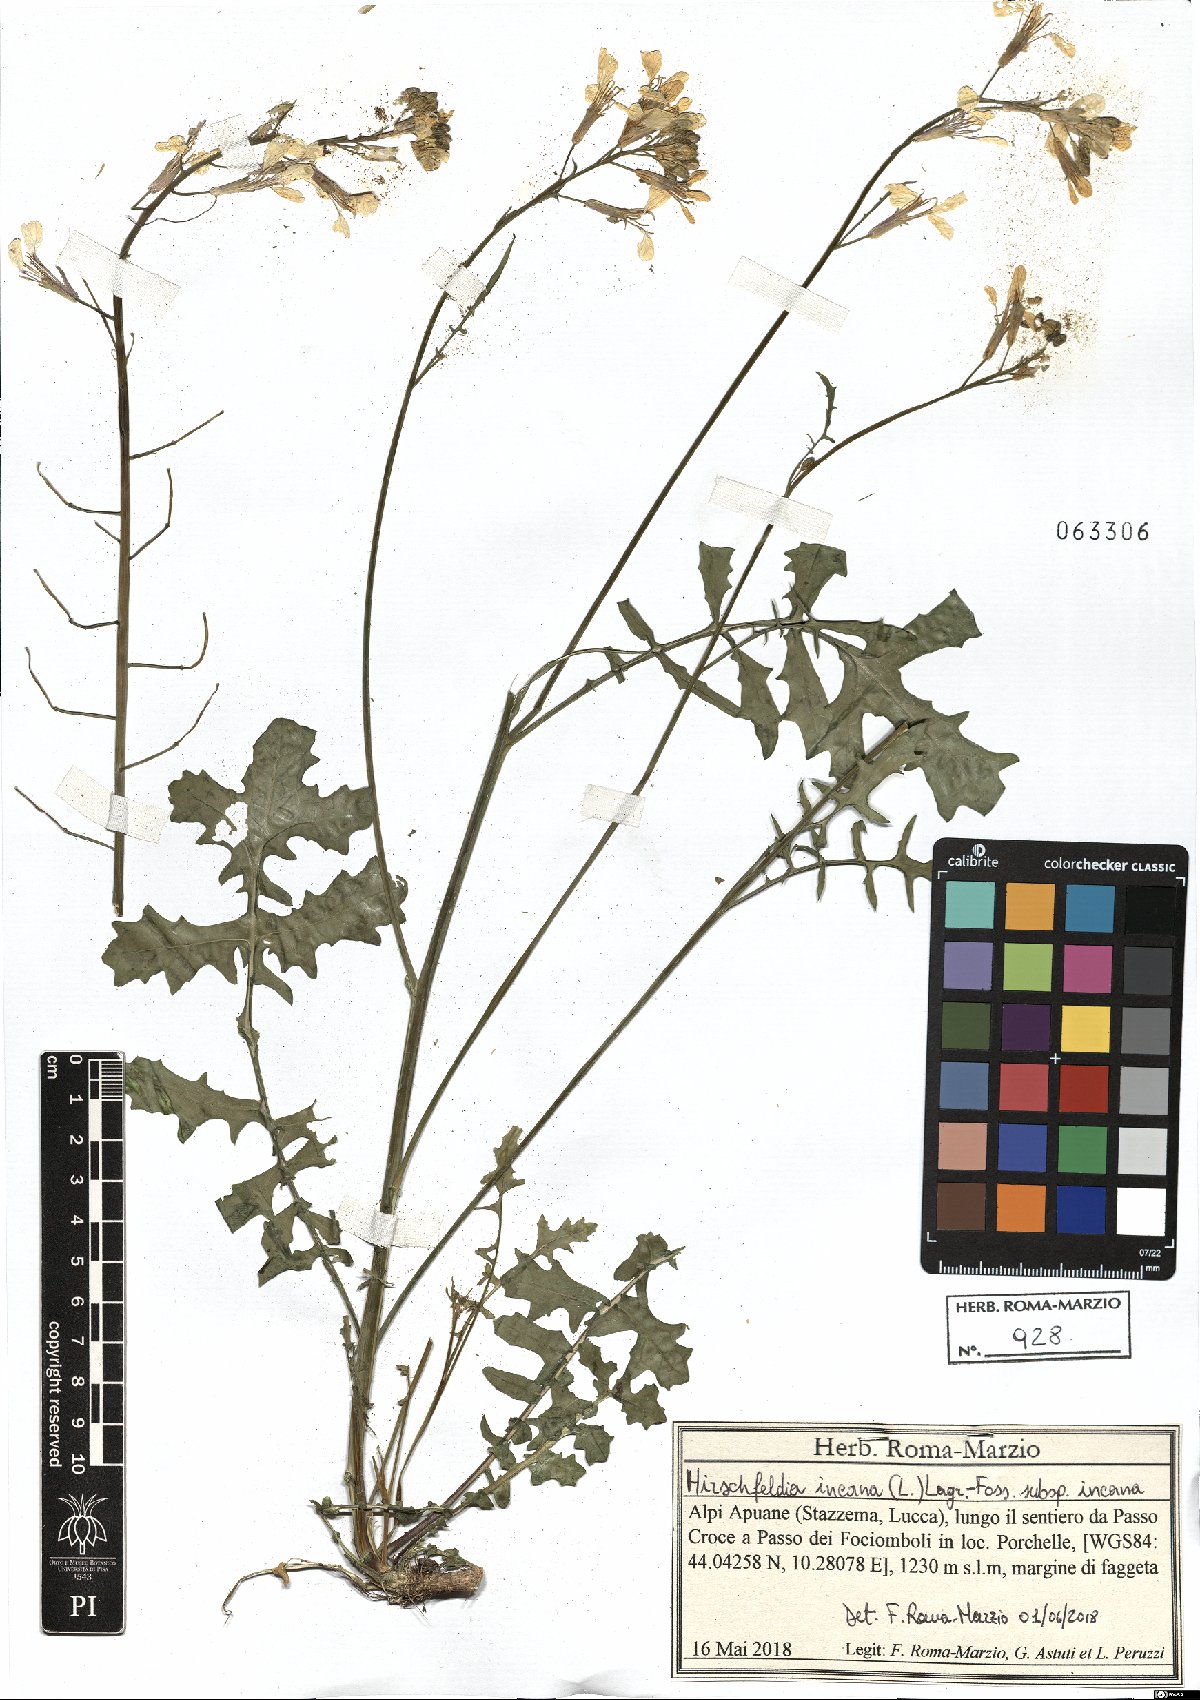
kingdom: Plantae
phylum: Tracheophyta
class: Magnoliopsida
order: Brassicales
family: Brassicaceae
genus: Hirschfeldia
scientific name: Hirschfeldia incana
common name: Hoary mustard
